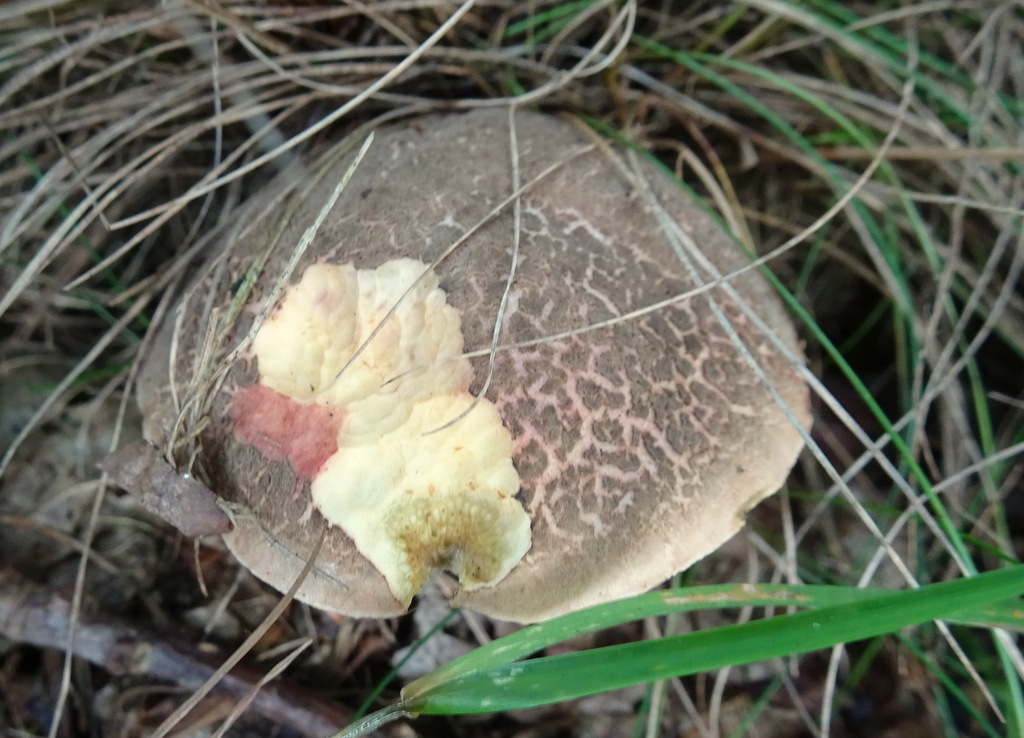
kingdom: Fungi
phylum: Basidiomycota
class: Agaricomycetes
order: Boletales
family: Boletaceae
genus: Xerocomellus
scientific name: Xerocomellus chrysenteron
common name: rødsprukken rørhat
